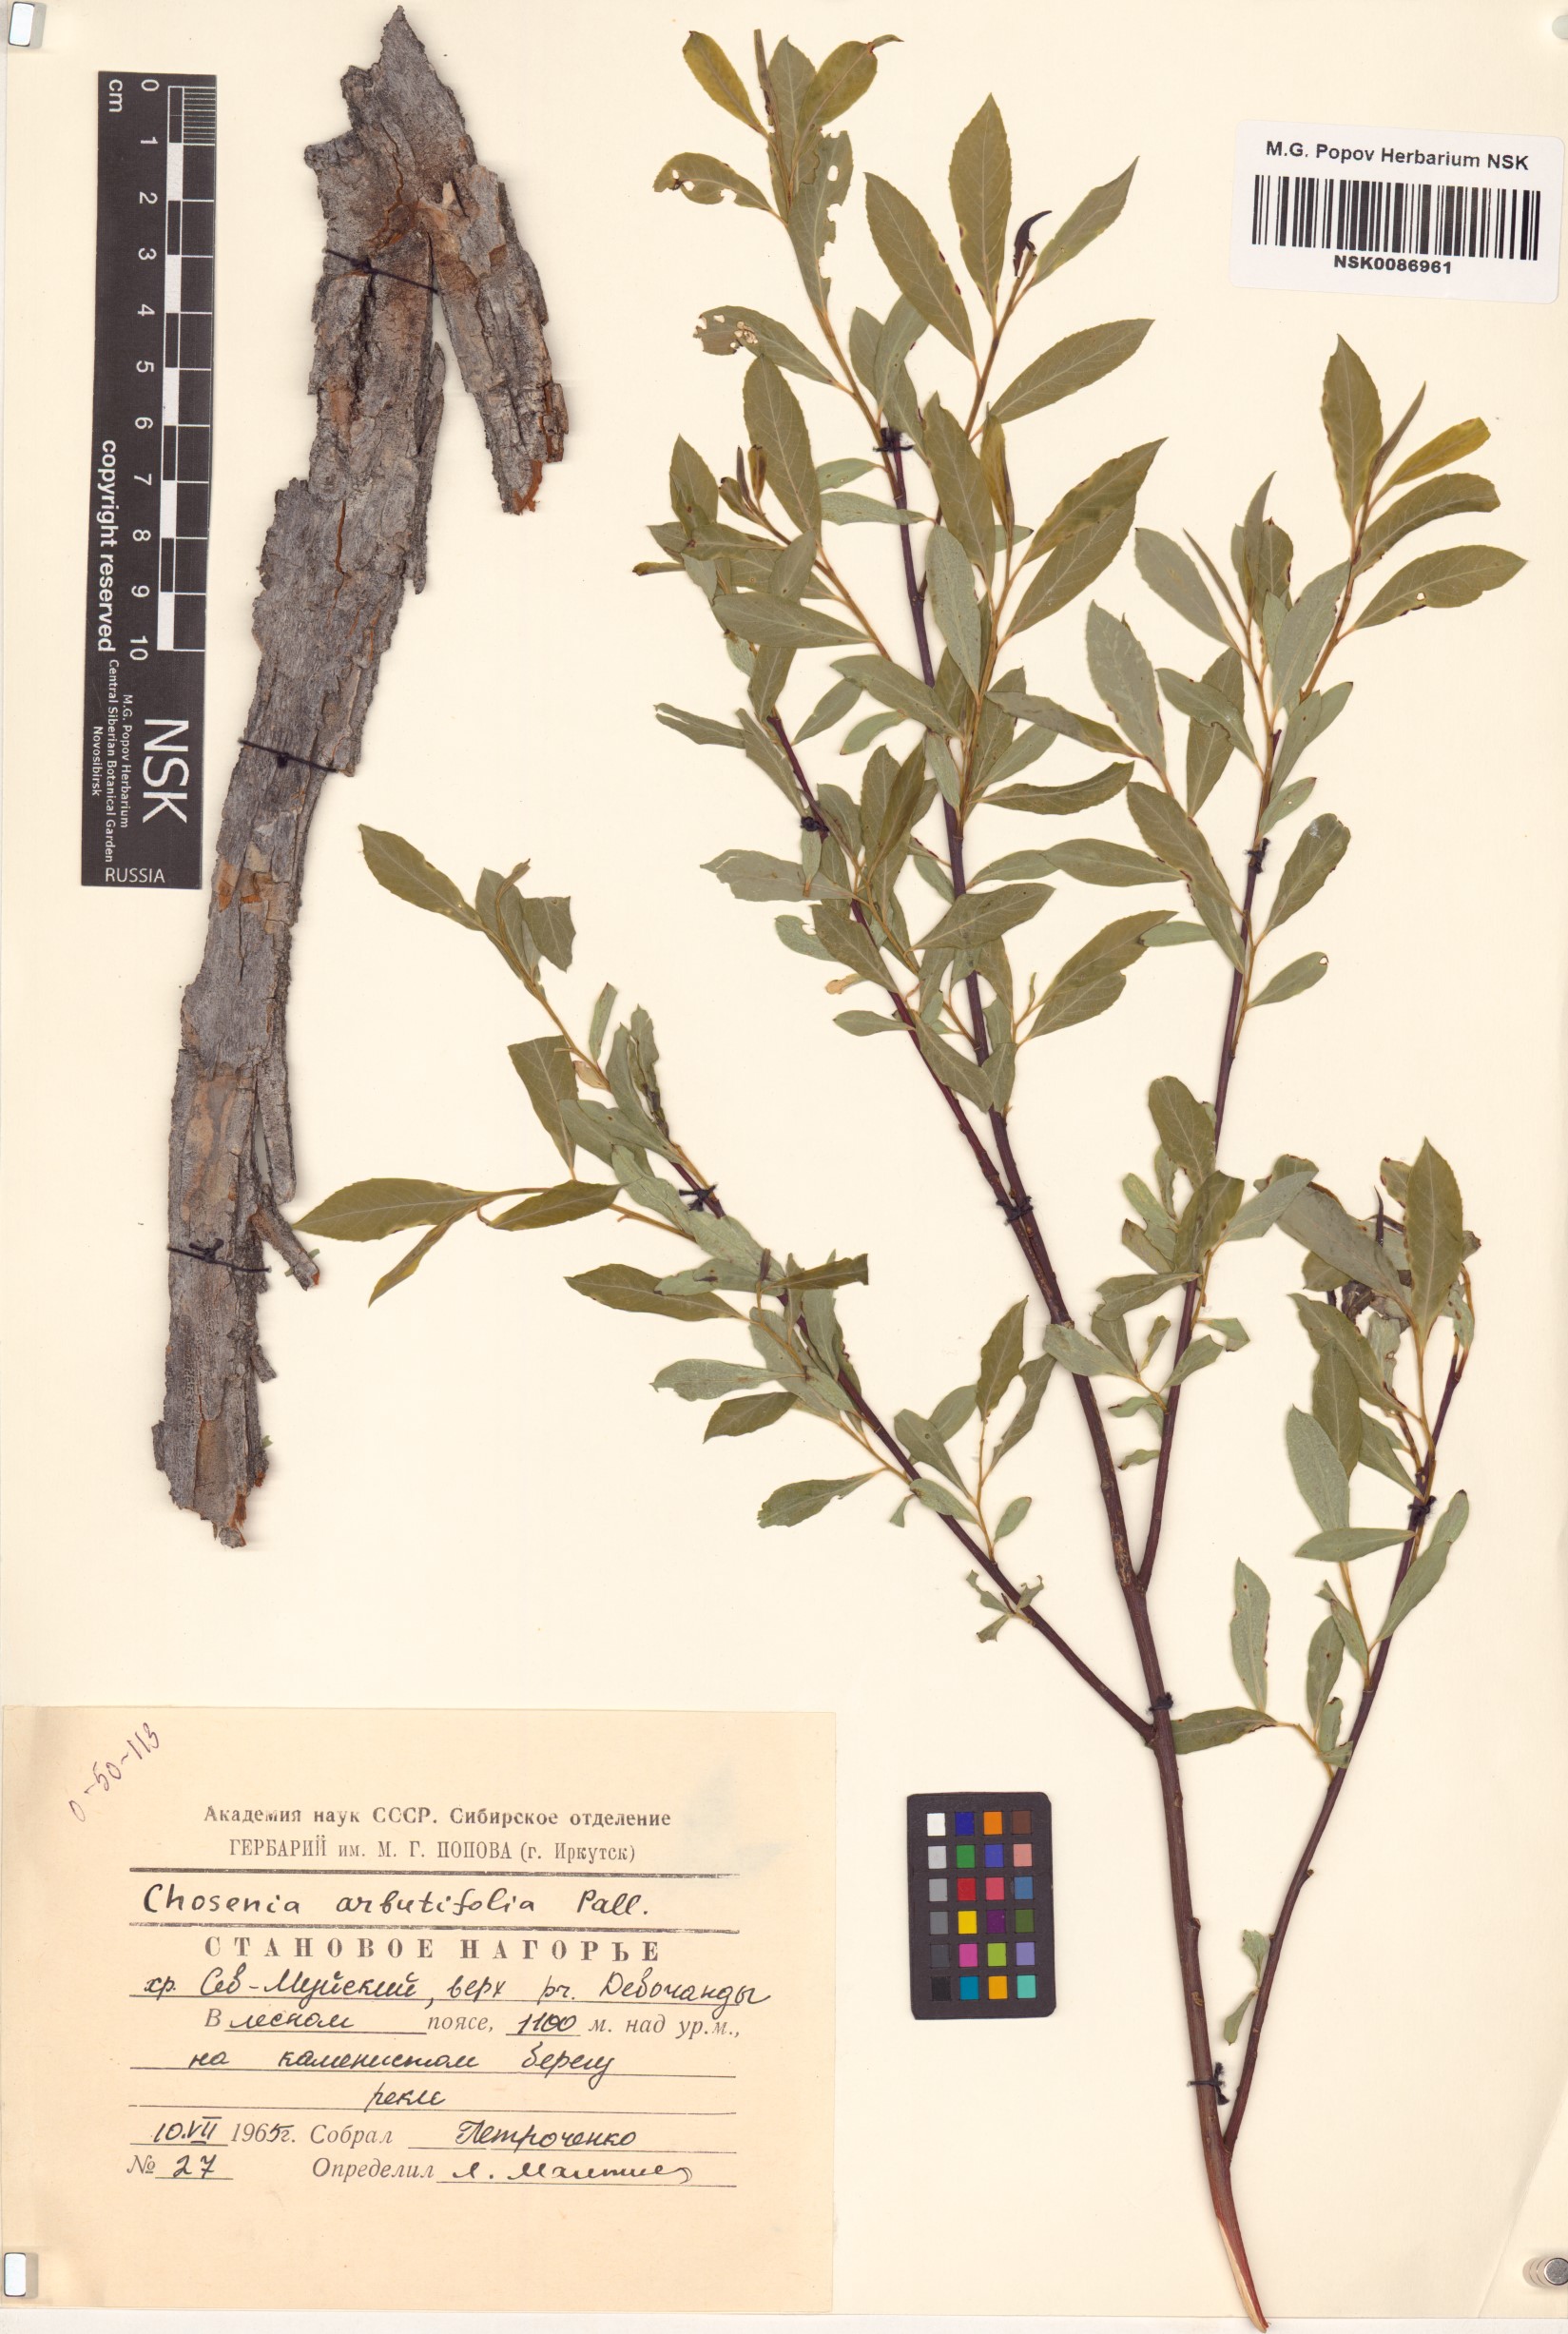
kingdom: Plantae
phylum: Tracheophyta
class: Magnoliopsida
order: Malpighiales
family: Salicaceae
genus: Chosenia
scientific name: Chosenia arbutifolia
